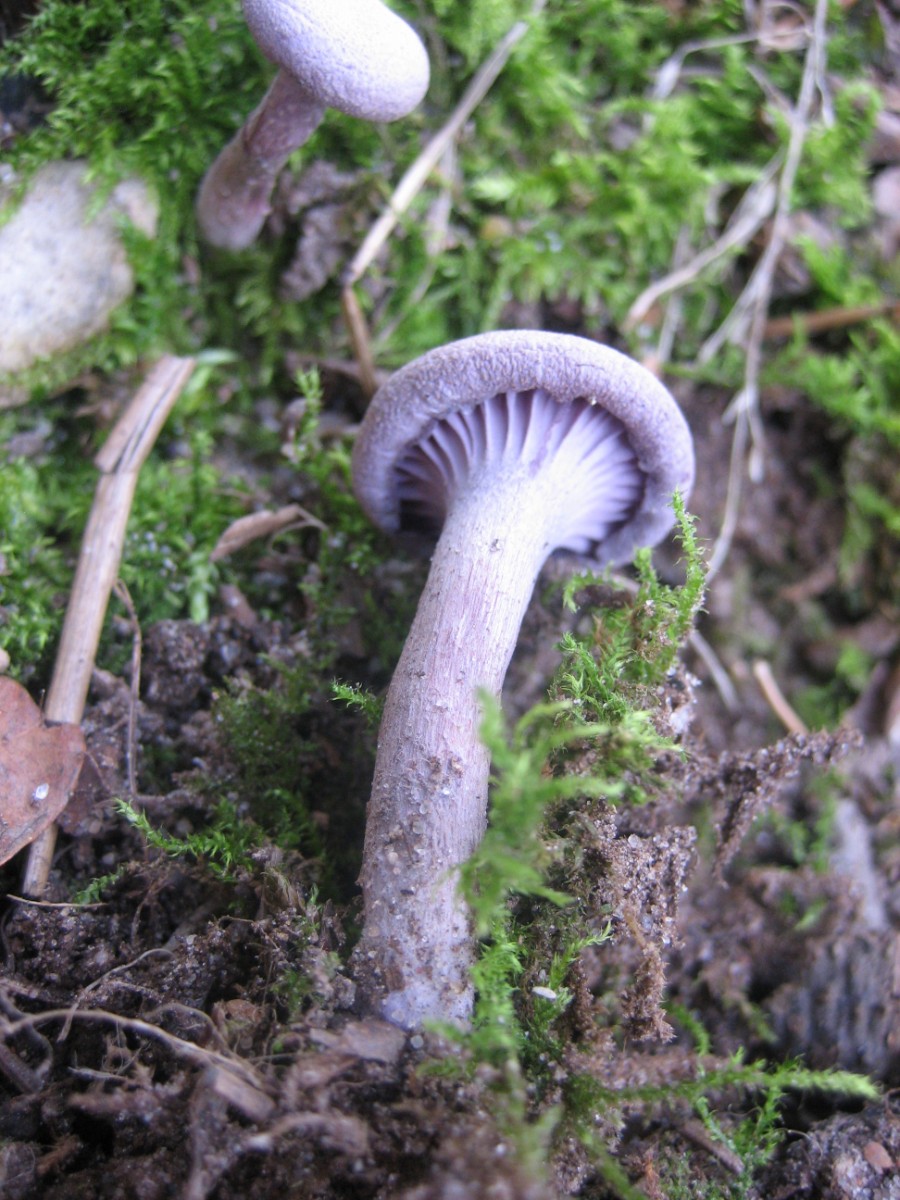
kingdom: Fungi
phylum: Basidiomycota
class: Agaricomycetes
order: Agaricales
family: Hydnangiaceae
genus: Laccaria
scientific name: Laccaria amethystina
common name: violet ametysthat
